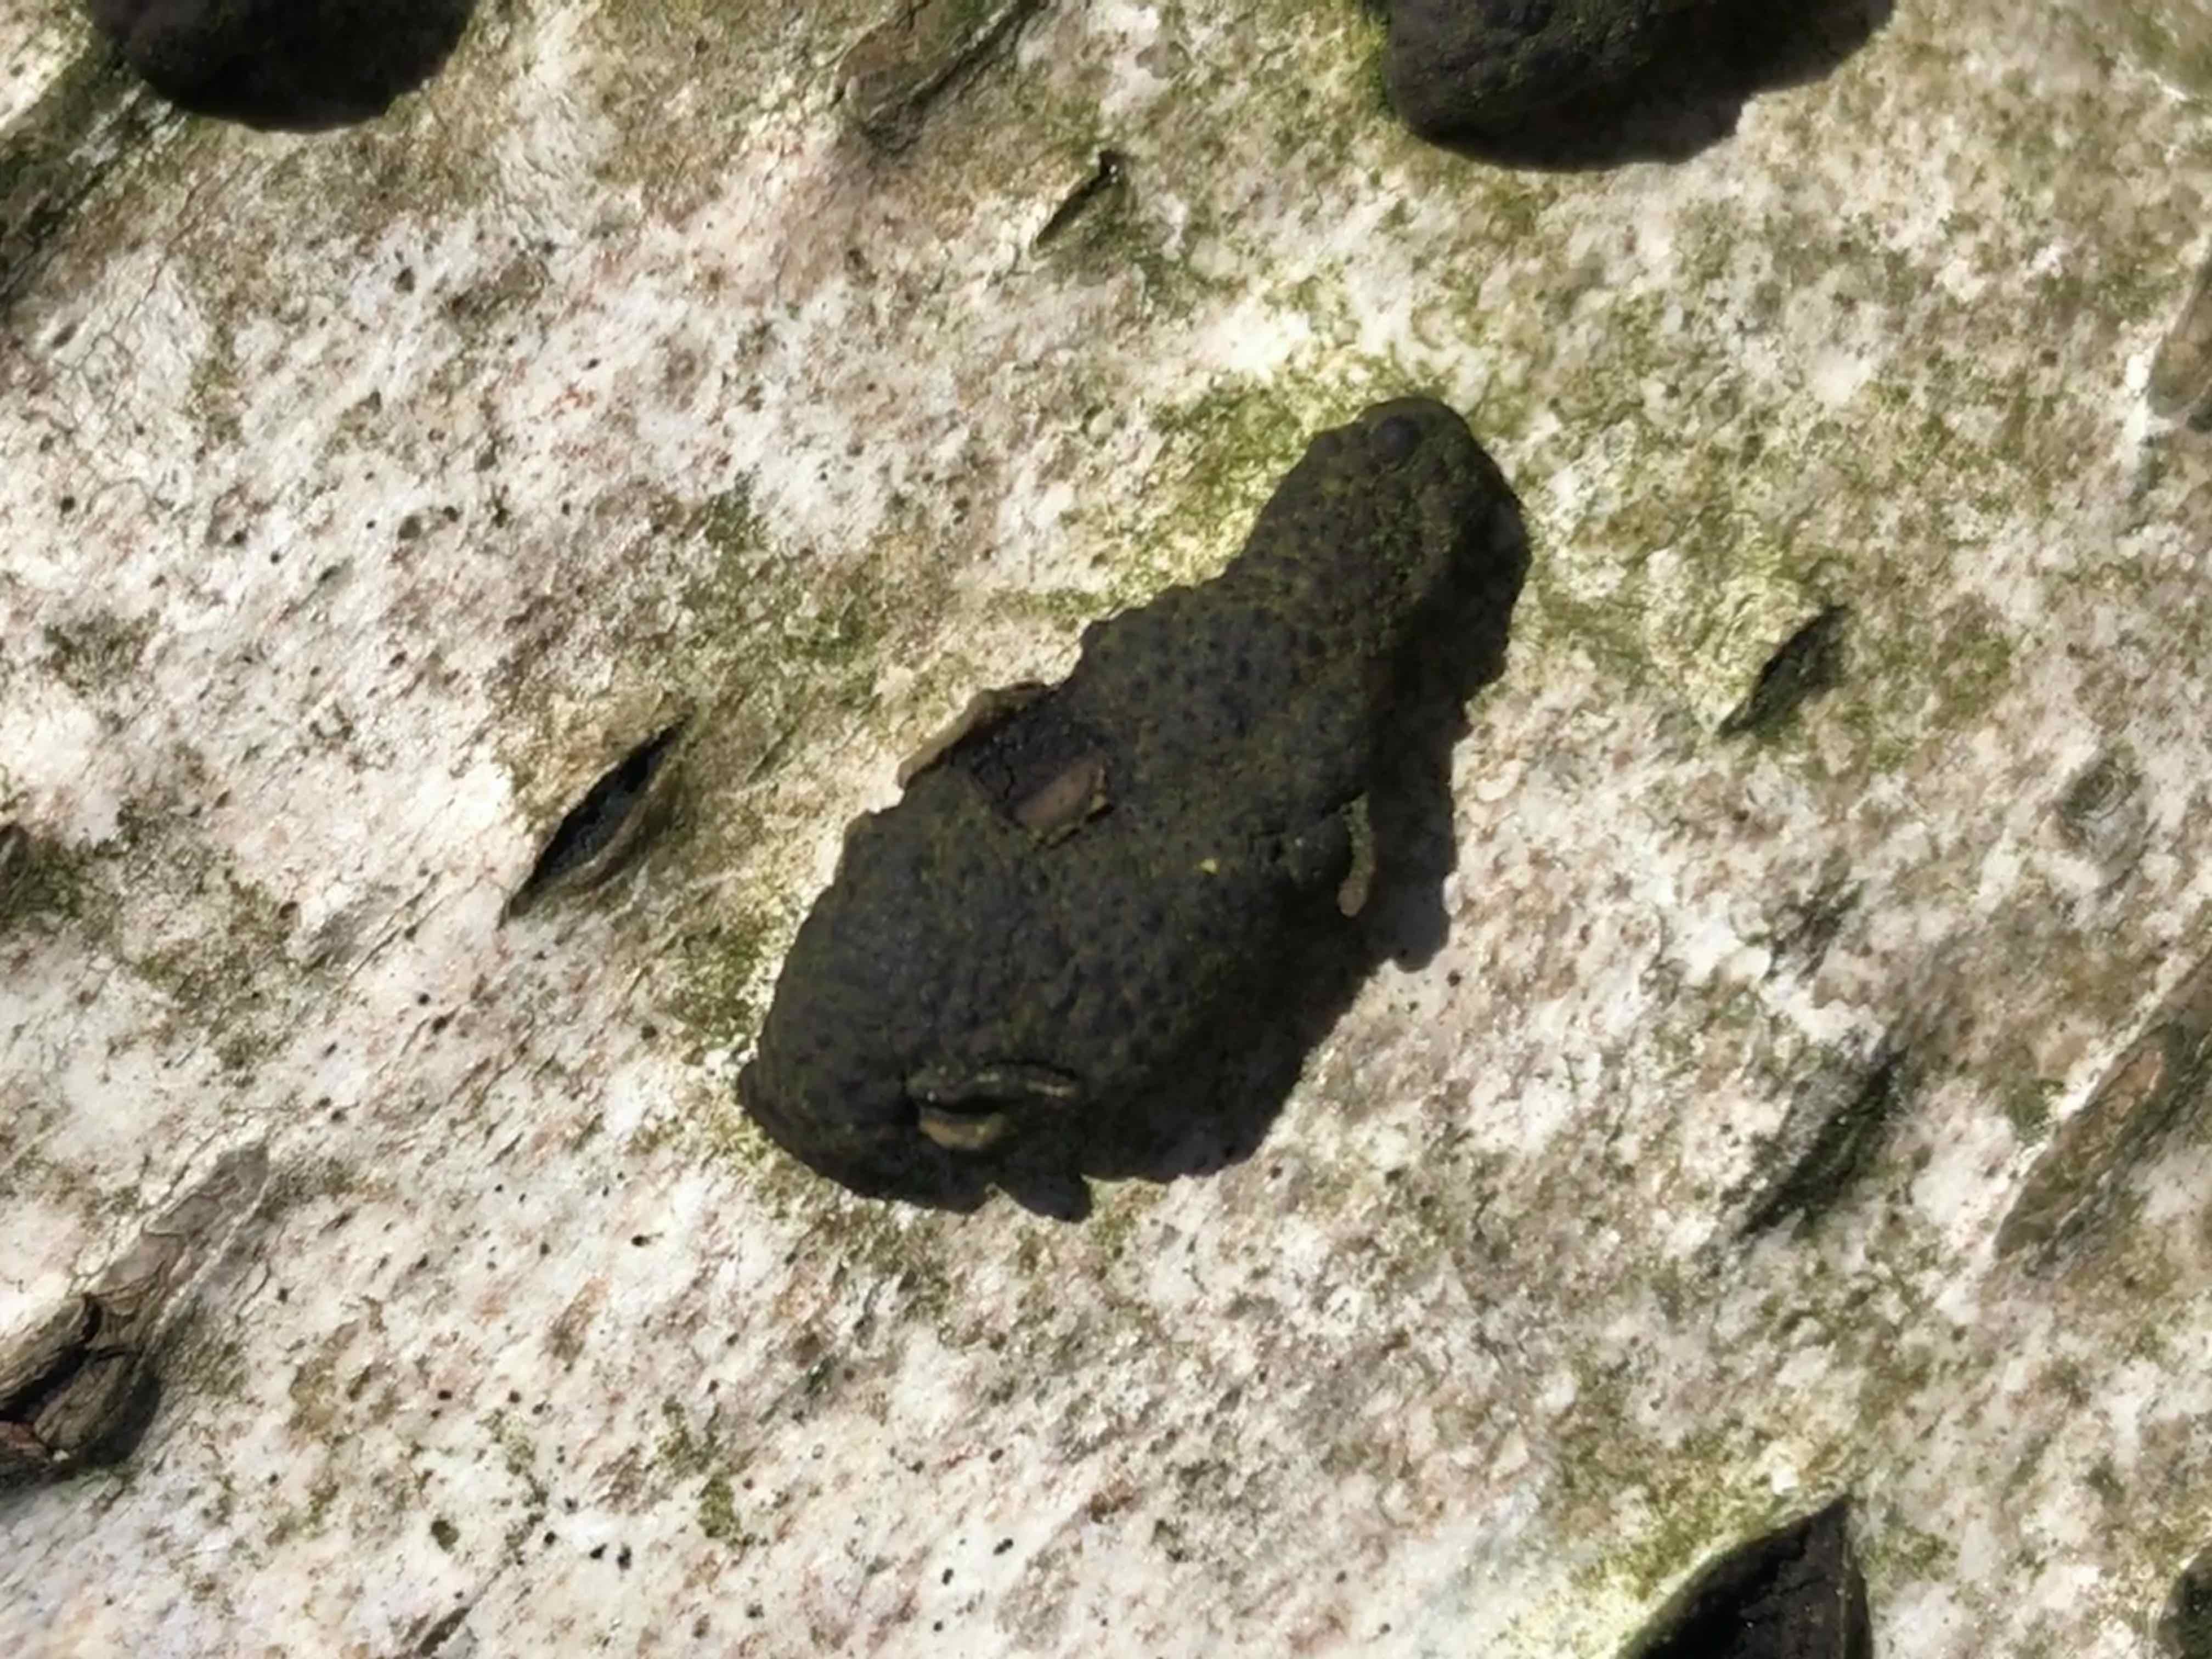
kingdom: Fungi
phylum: Ascomycota
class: Sordariomycetes
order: Xylariales
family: Hypoxylaceae
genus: Jackrogersella
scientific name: Jackrogersella multiformis
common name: foranderlig kulbær
